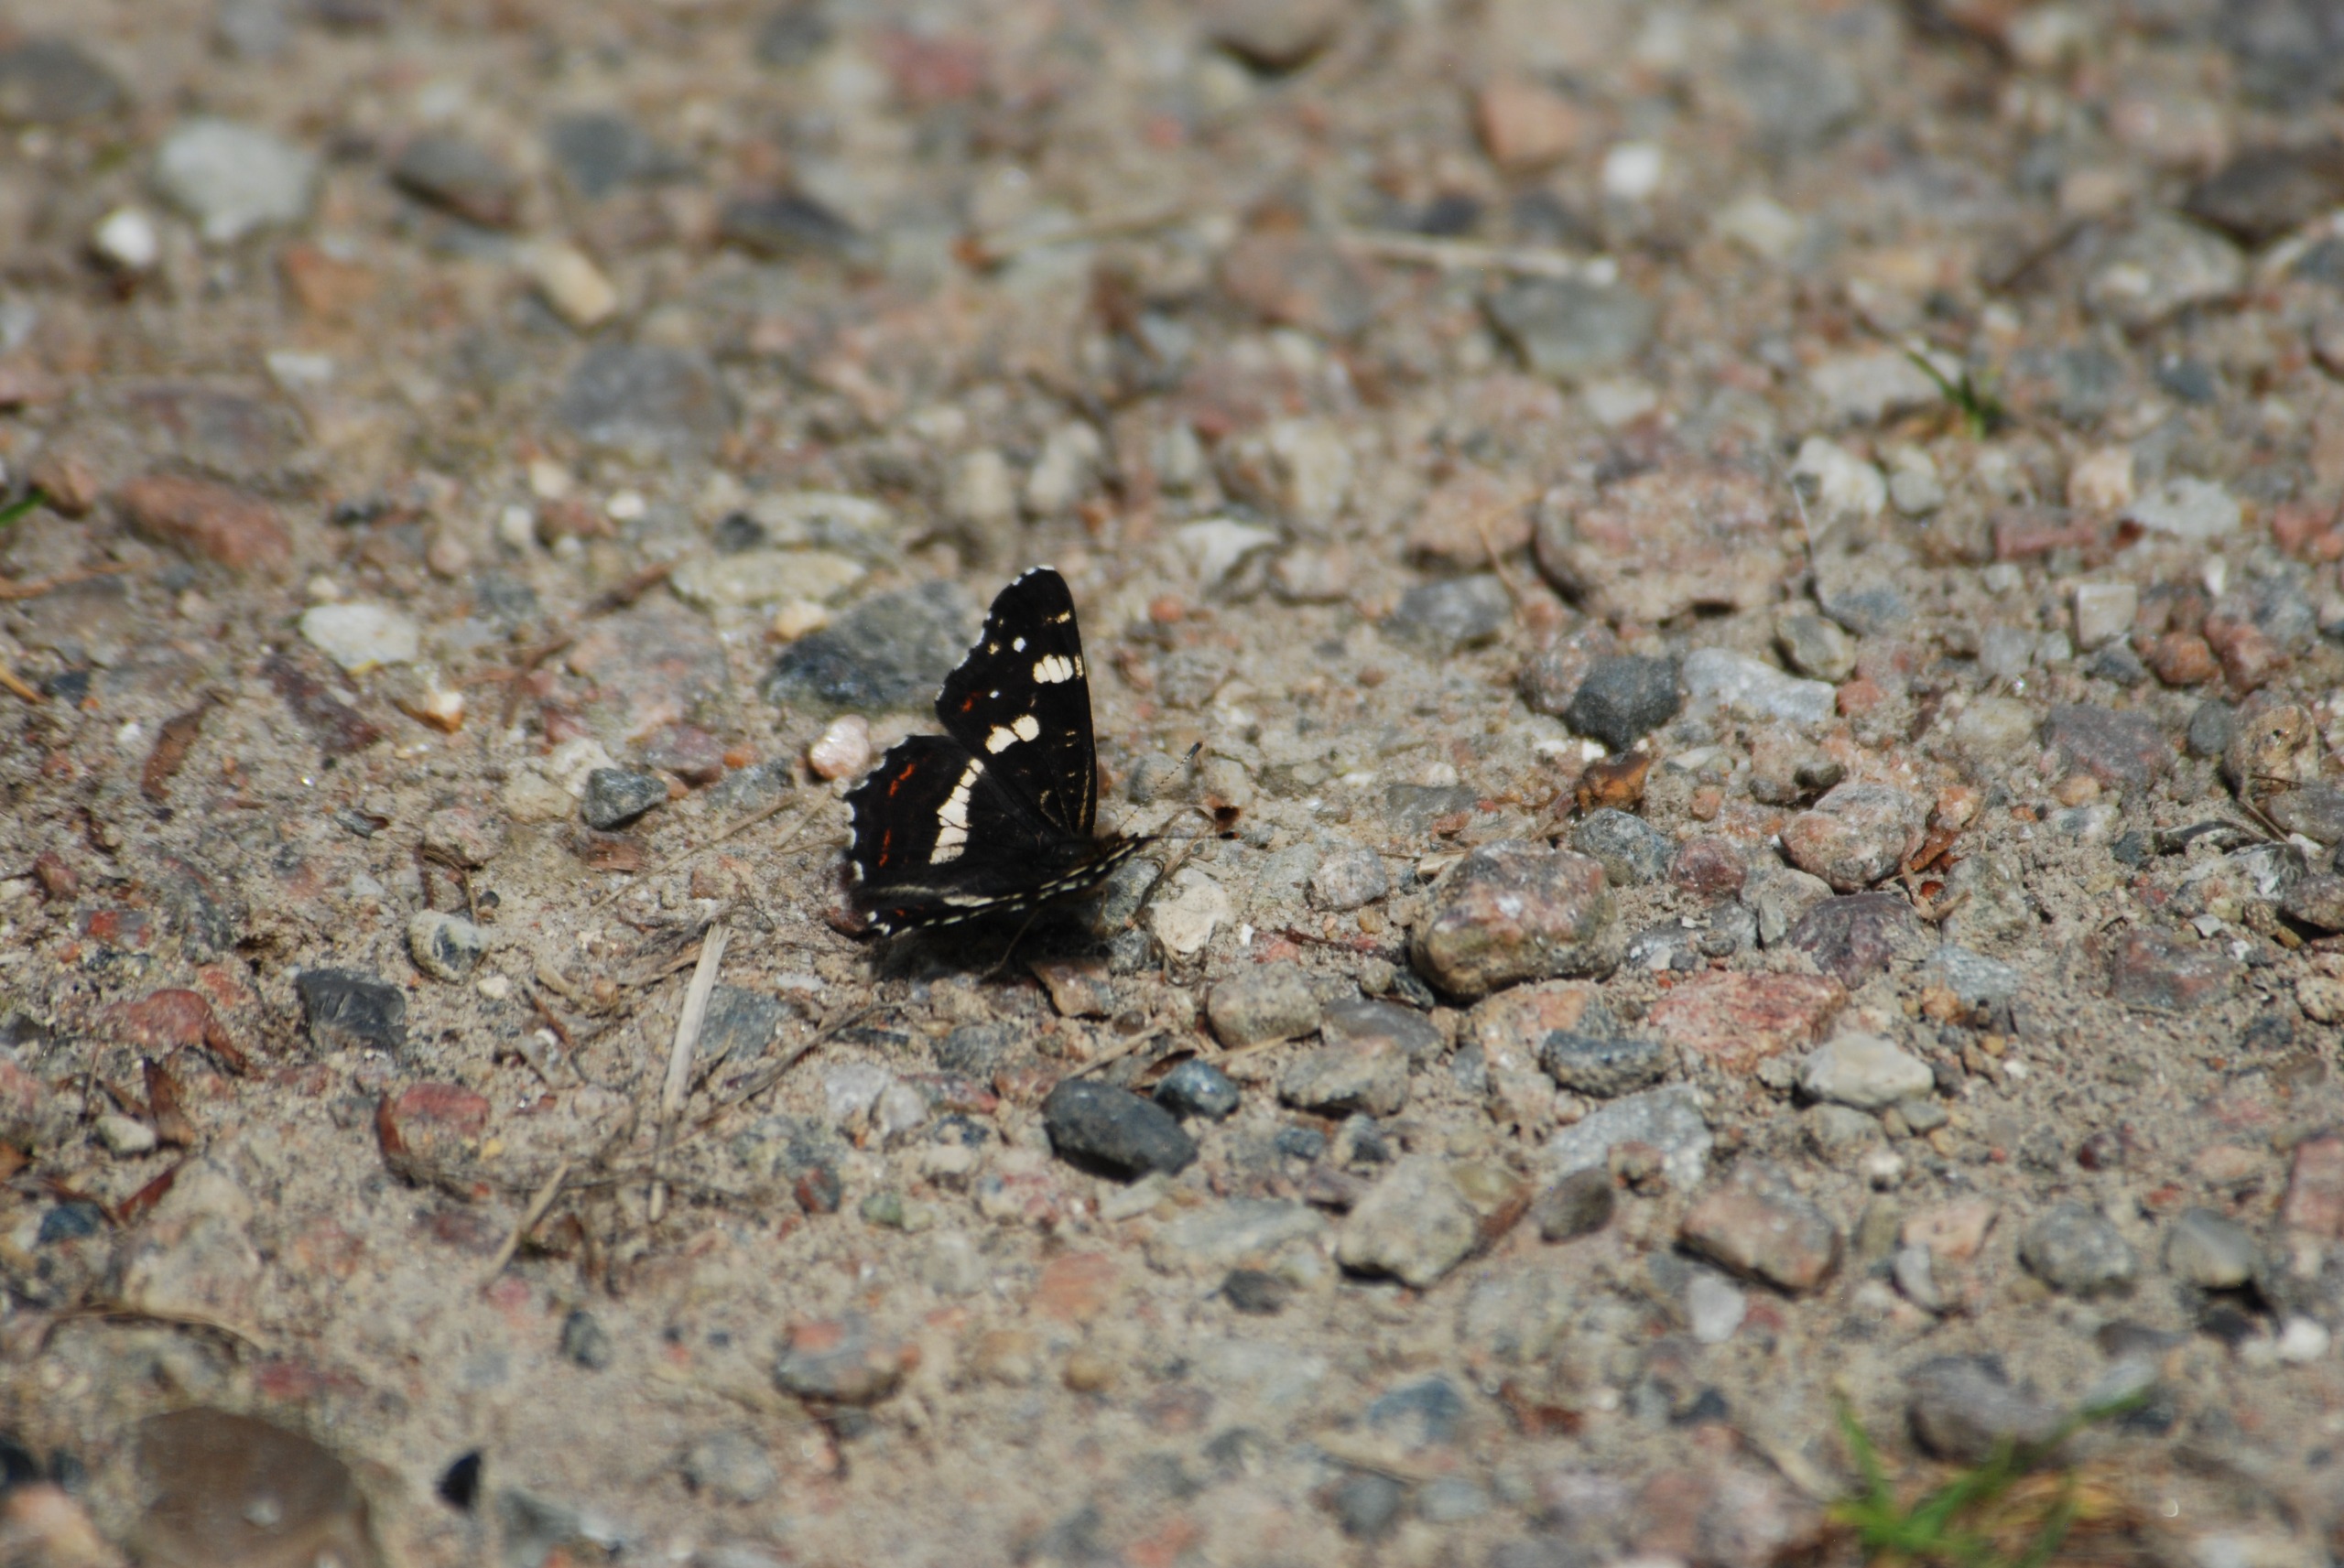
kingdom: Animalia
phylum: Arthropoda
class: Insecta
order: Lepidoptera
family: Nymphalidae
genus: Araschnia
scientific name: Araschnia levana
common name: Nældesommerfugl
